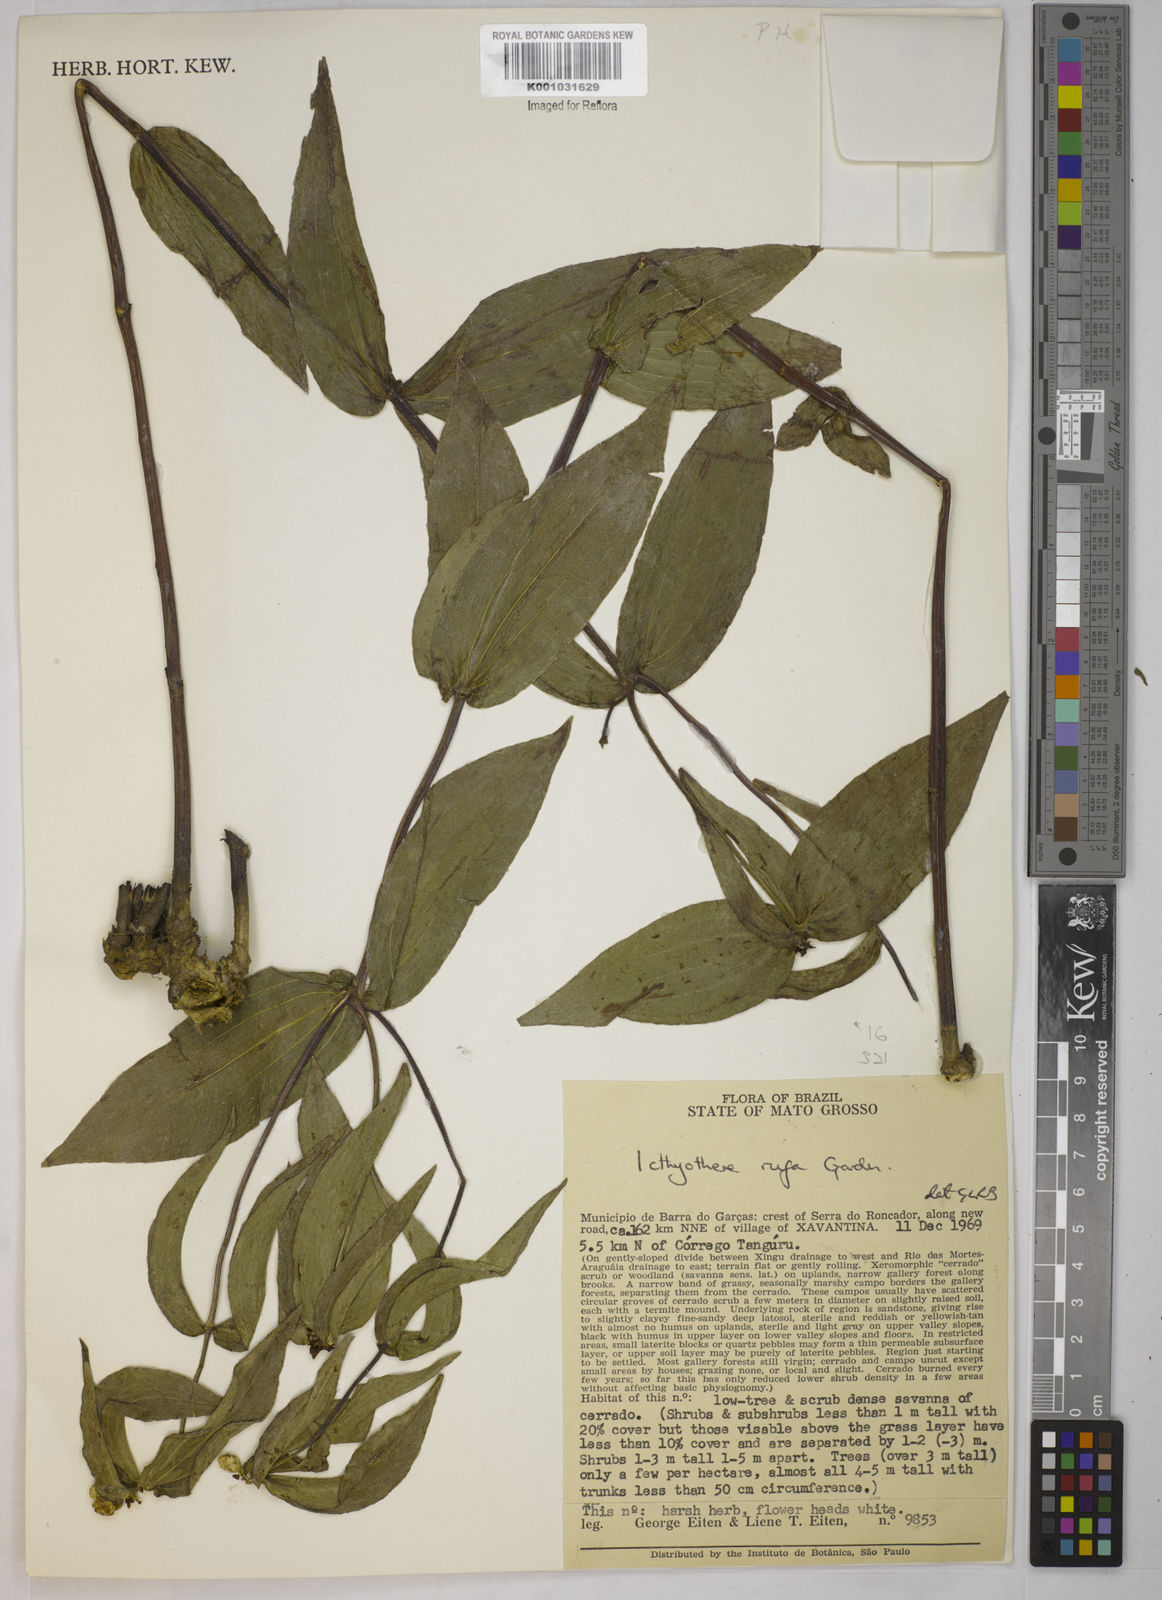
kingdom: Plantae
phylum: Tracheophyta
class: Magnoliopsida
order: Asterales
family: Asteraceae
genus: Ichthyothere
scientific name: Ichthyothere rufa
